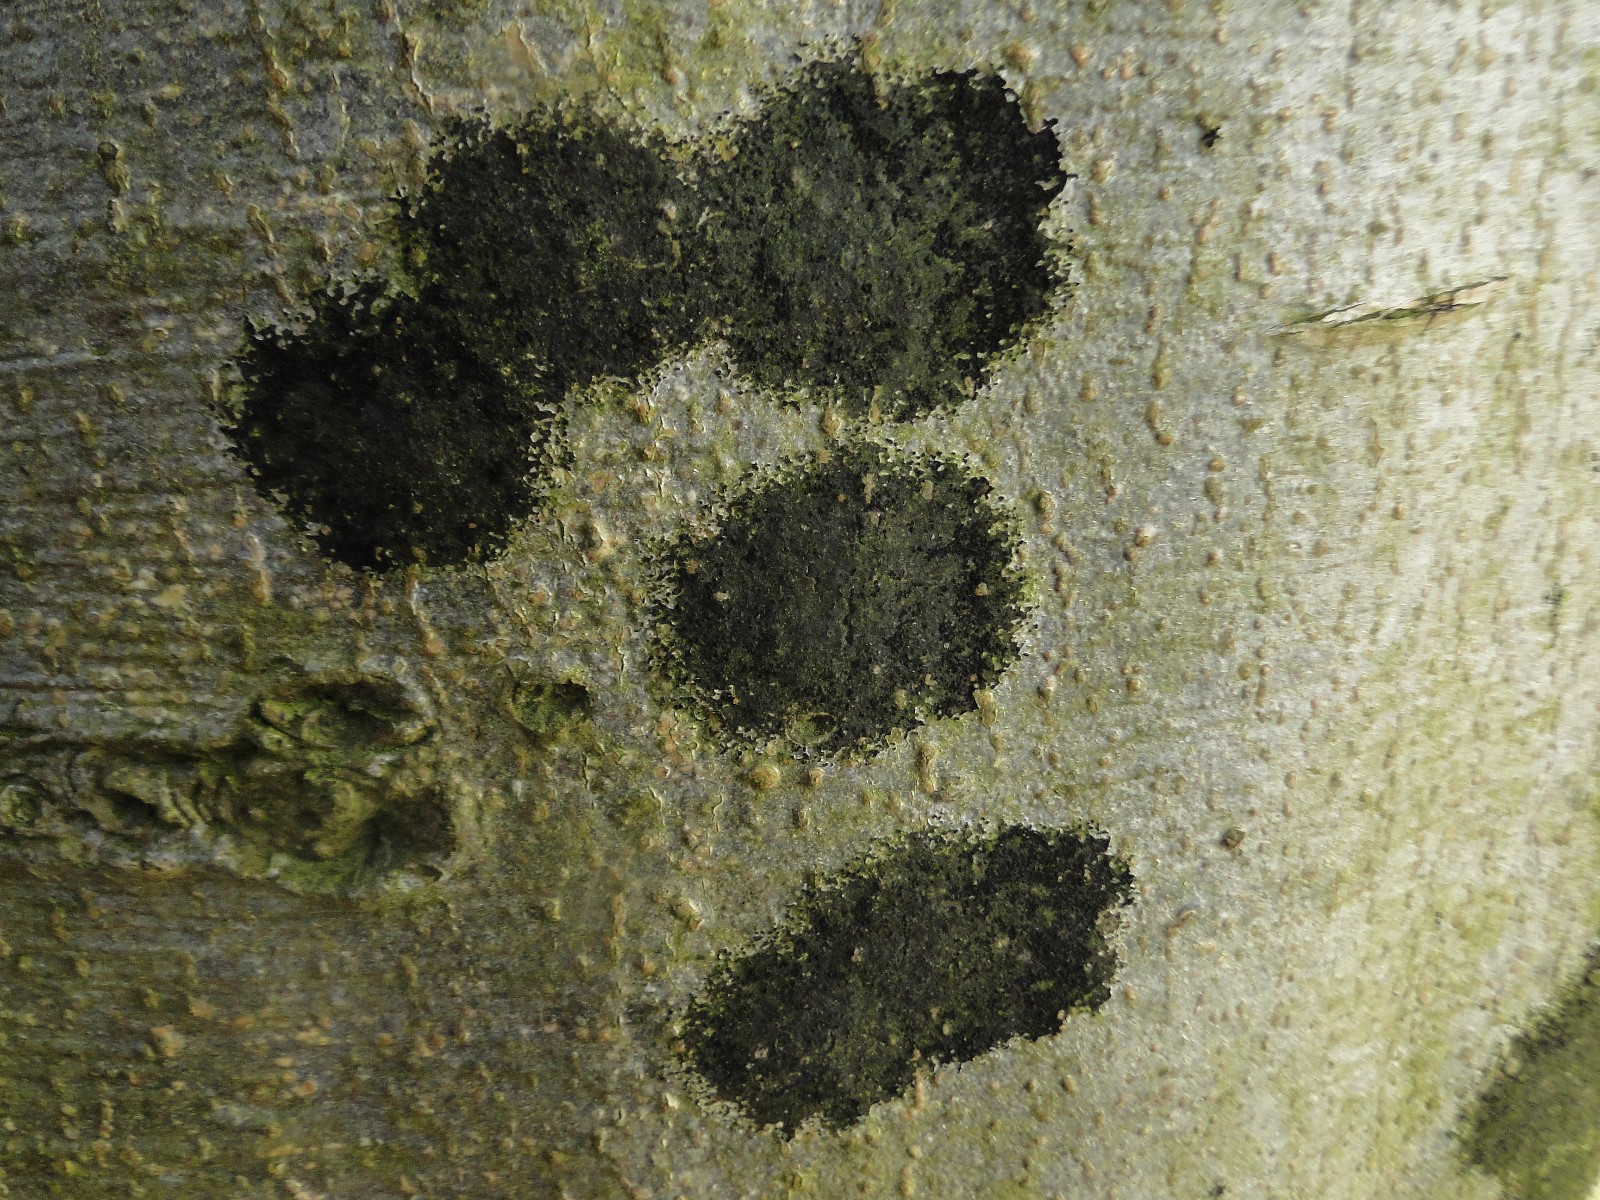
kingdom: Fungi
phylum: Ascomycota
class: Leotiomycetes
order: Rhytismatales
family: Ascodichaenaceae
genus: Ascodichaena
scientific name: Ascodichaena rugosa
